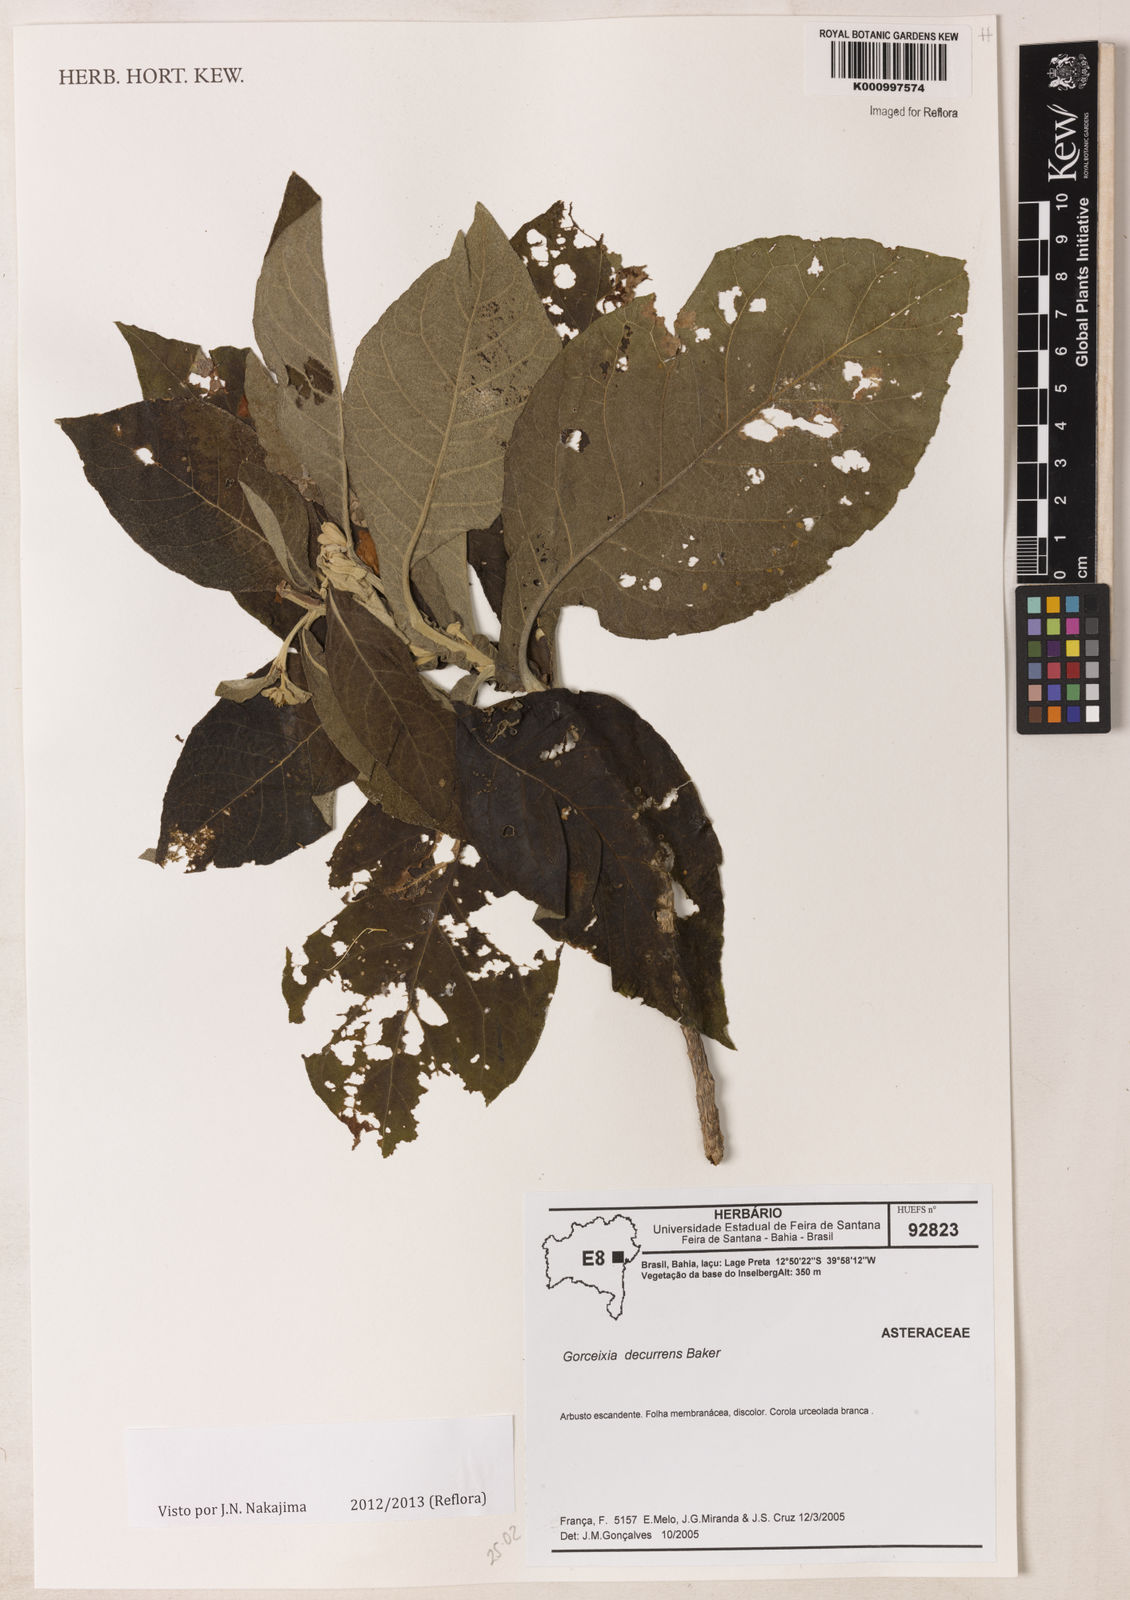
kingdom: Plantae
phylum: Tracheophyta
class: Magnoliopsida
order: Asterales
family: Asteraceae
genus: Gorceixia
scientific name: Gorceixia decurrens
